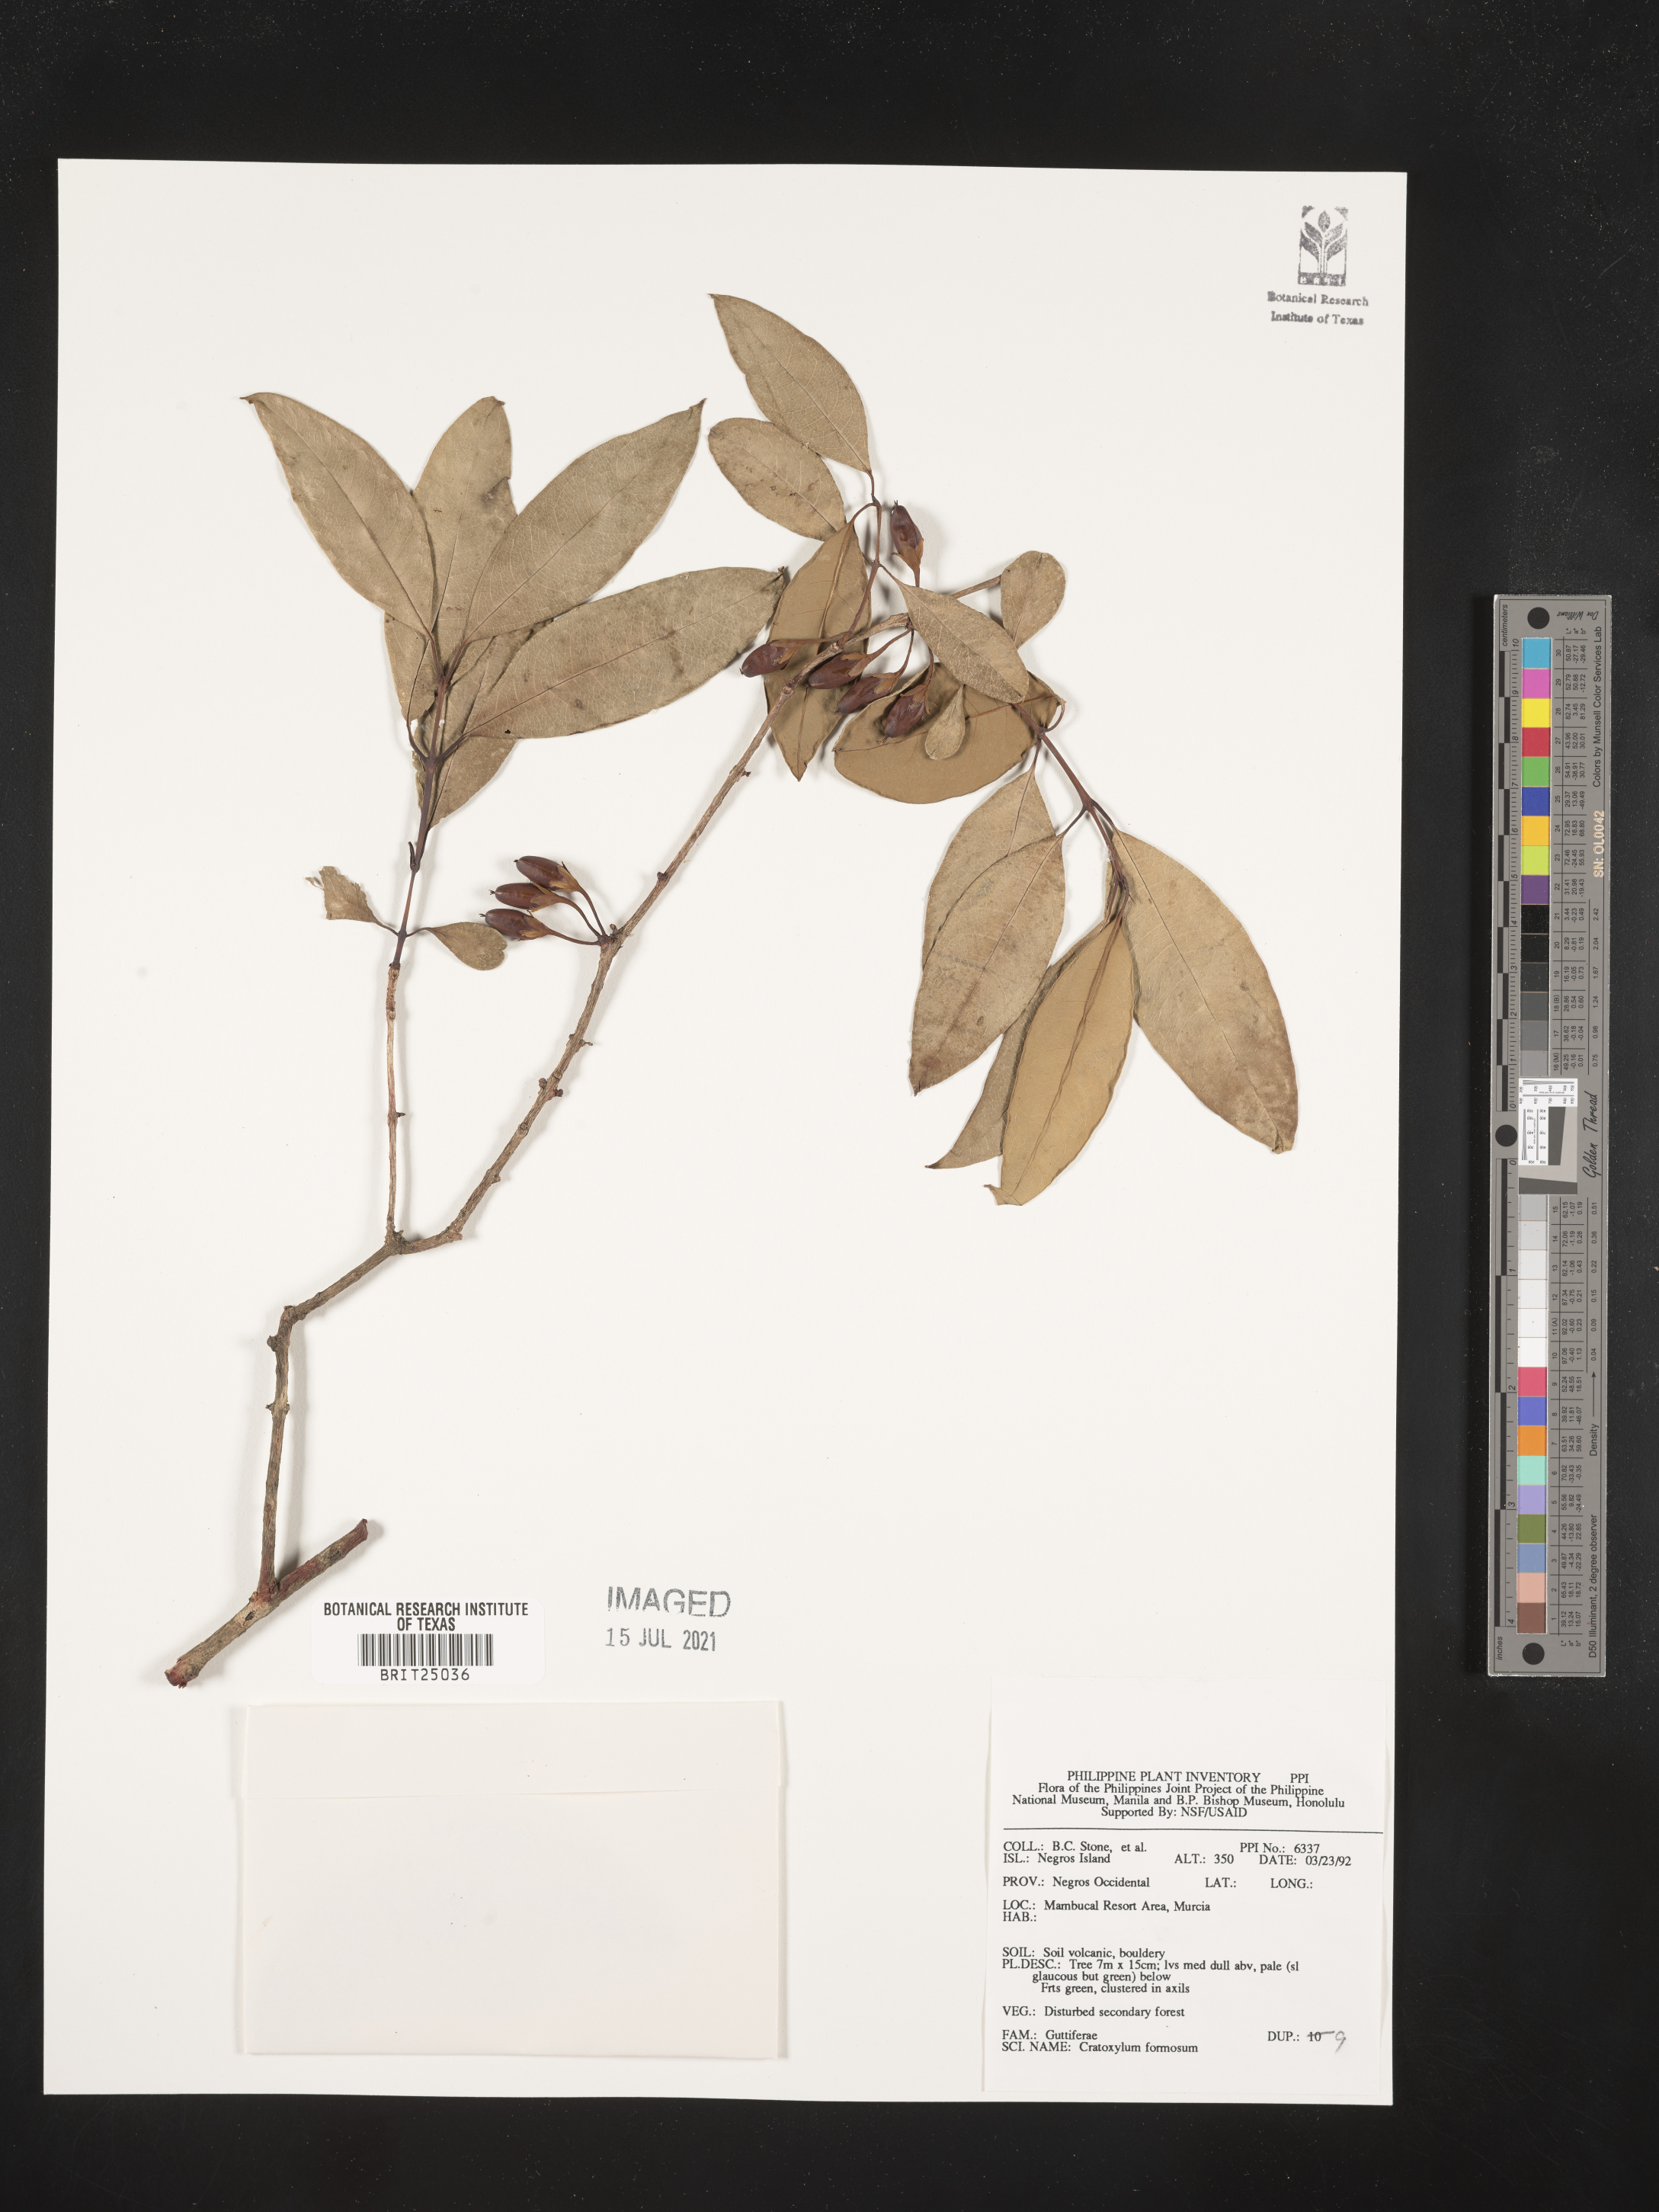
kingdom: Plantae
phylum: Tracheophyta
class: Magnoliopsida
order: Malpighiales
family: Hypericaceae
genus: Cratoxylum
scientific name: Cratoxylum formosum
